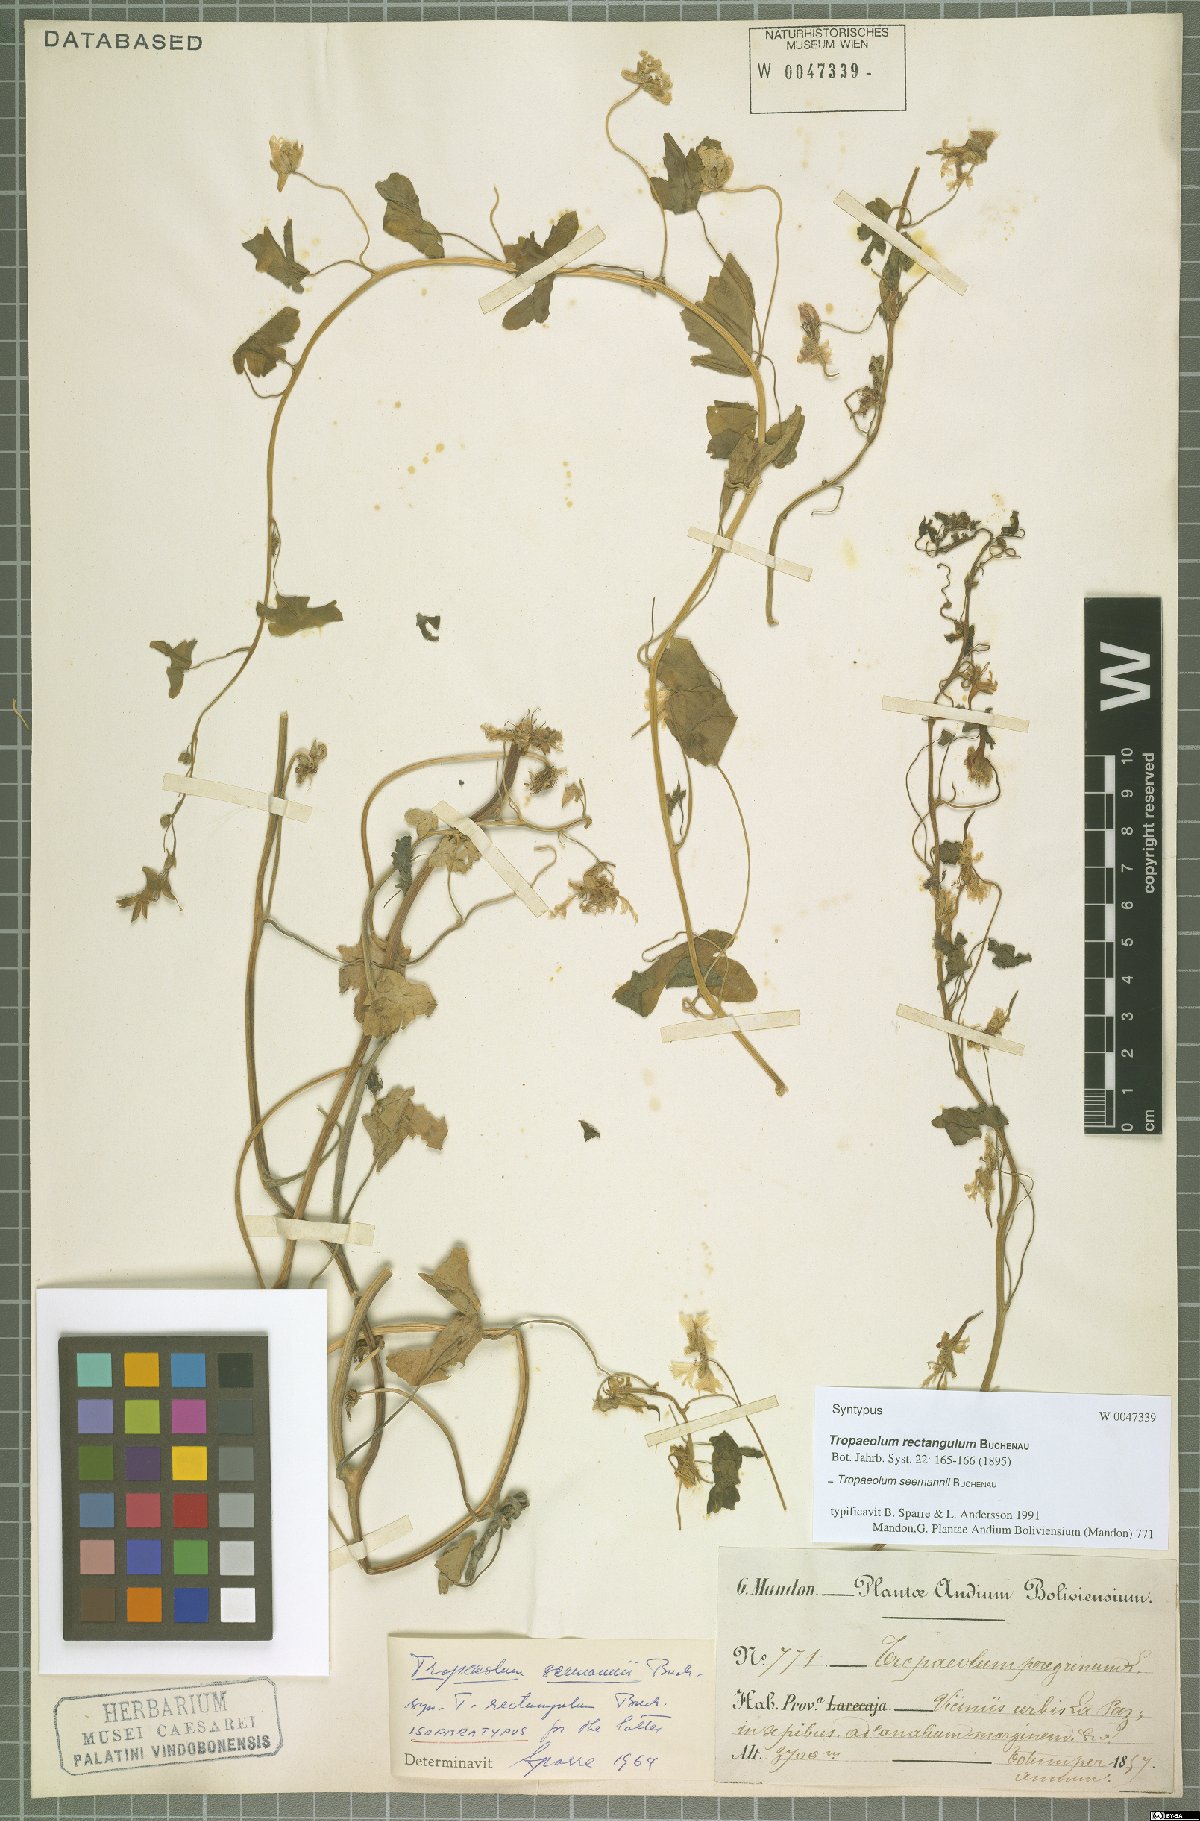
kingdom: Plantae
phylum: Tracheophyta
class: Magnoliopsida
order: Brassicales
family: Tropaeolaceae
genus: Tropaeolum
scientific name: Tropaeolum seemannii
